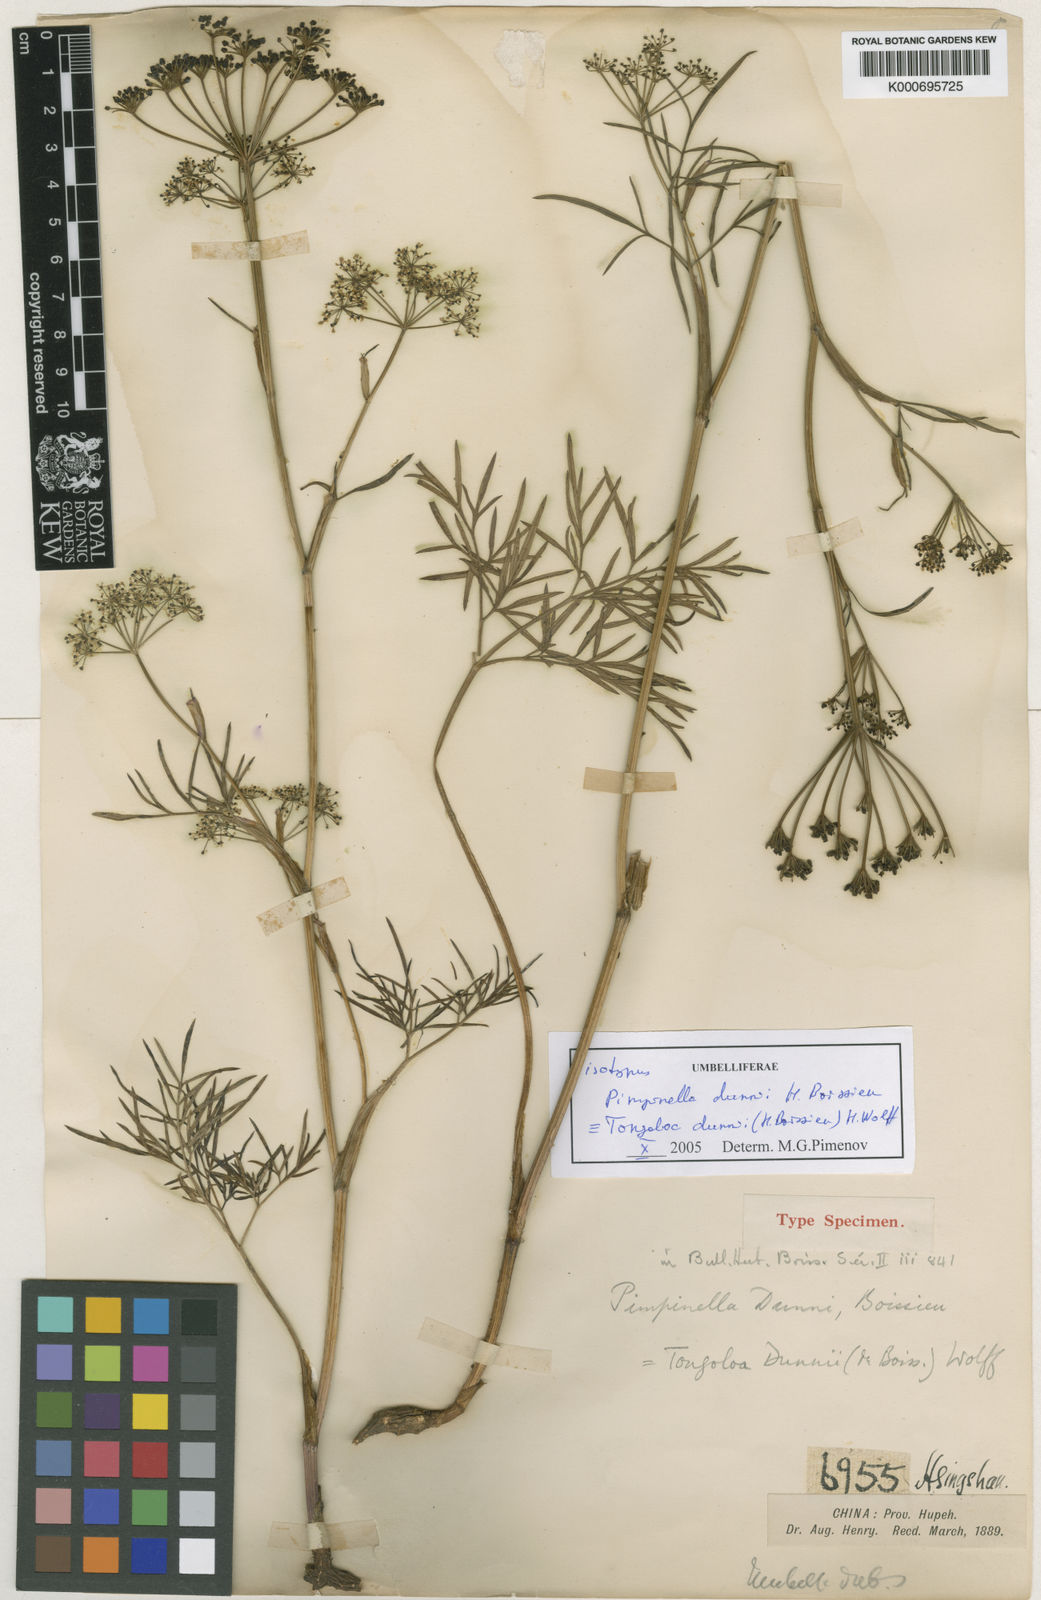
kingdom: Plantae
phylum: Tracheophyta
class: Magnoliopsida
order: Apiales
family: Apiaceae
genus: Tongoloa
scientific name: Tongoloa dunnii
